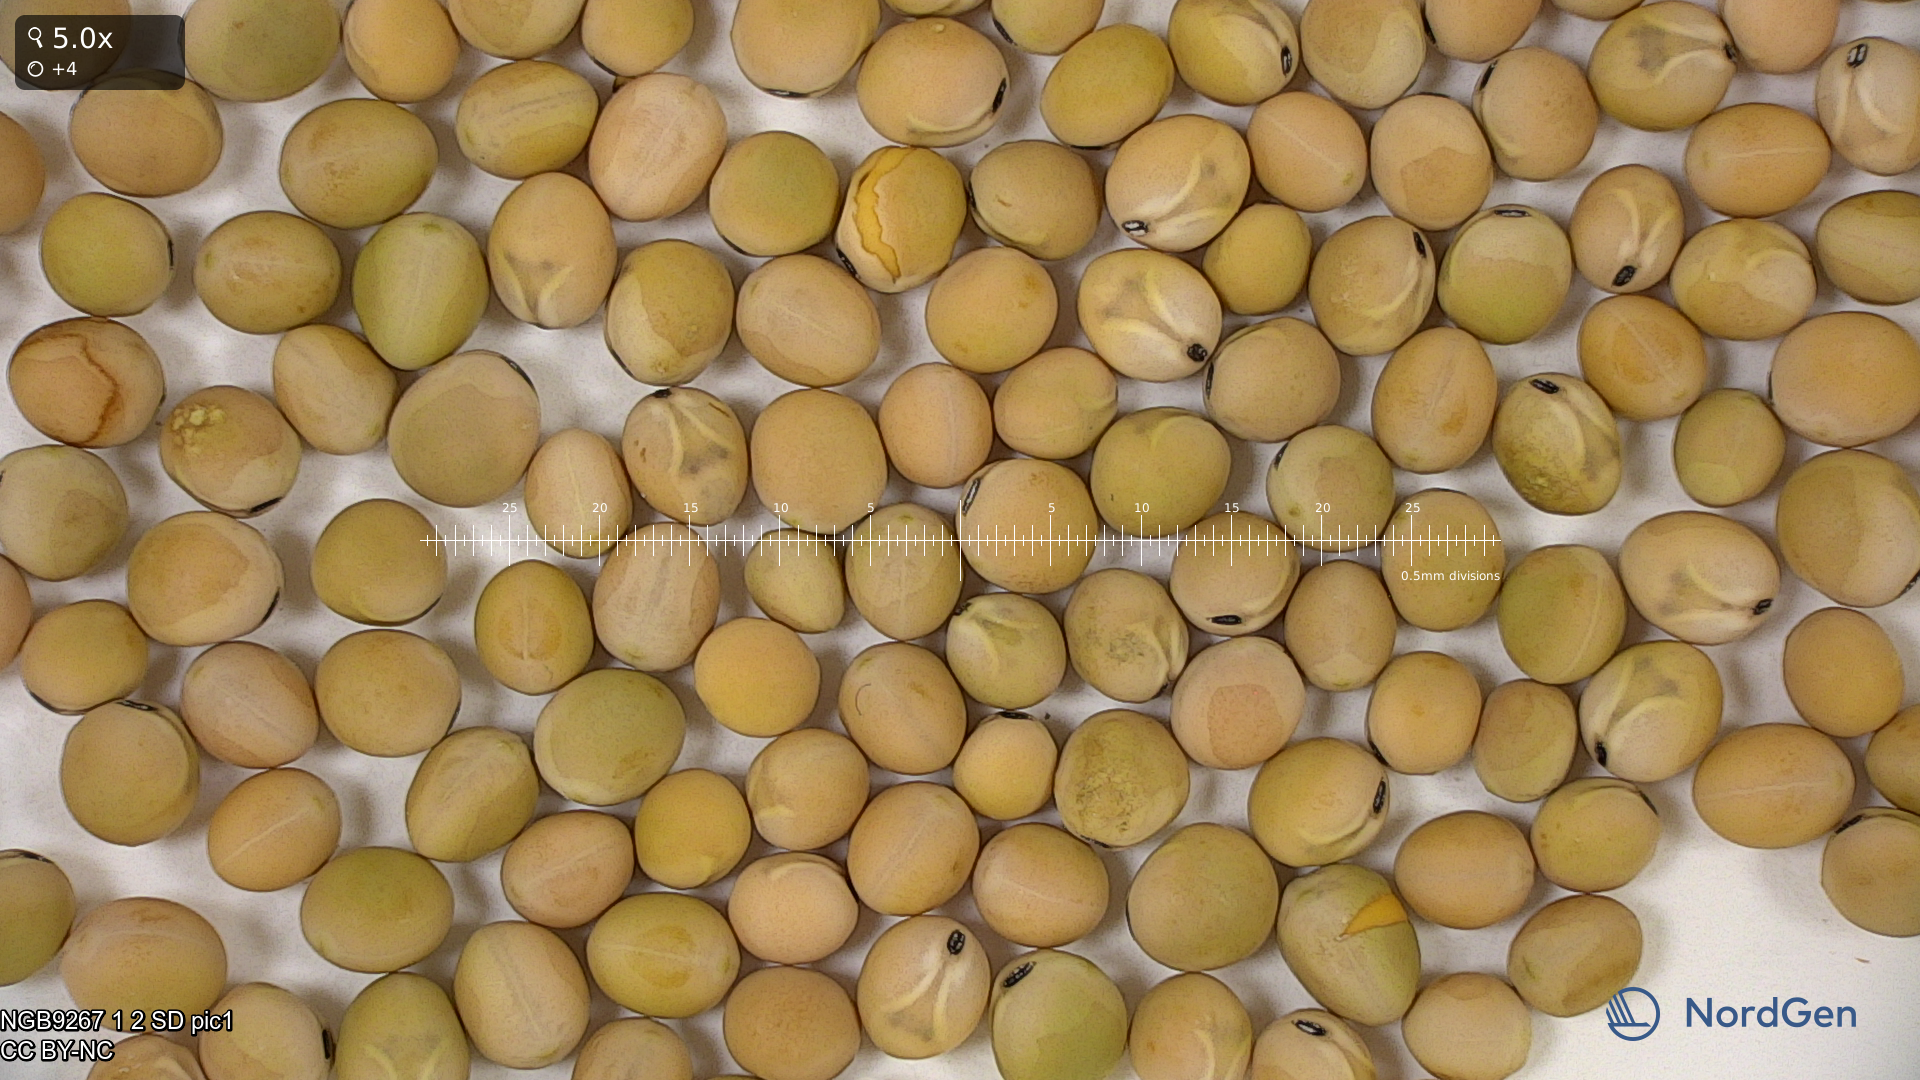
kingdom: Plantae
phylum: Tracheophyta
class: Magnoliopsida
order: Fabales
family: Fabaceae
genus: Lathyrus
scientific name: Lathyrus oleraceus
